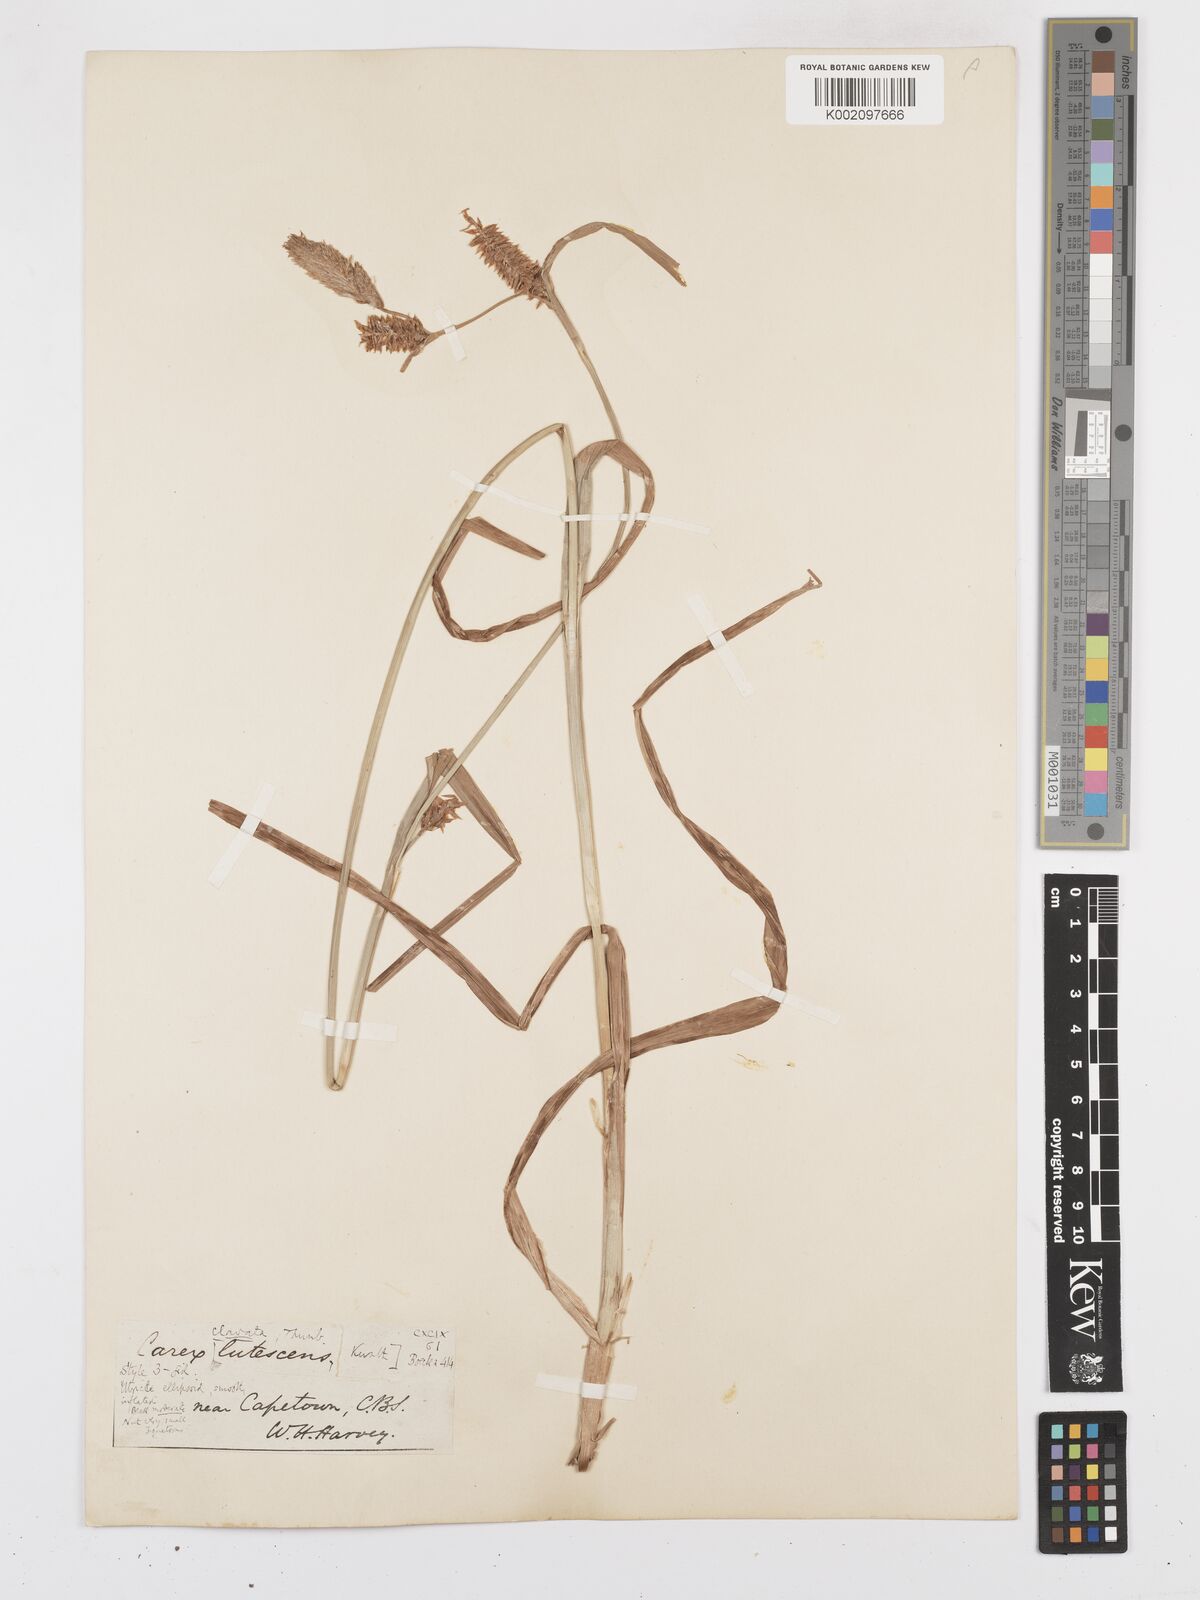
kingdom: Plantae
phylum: Tracheophyta
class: Liliopsida
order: Poales
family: Cyperaceae
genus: Carex
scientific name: Carex clavata
